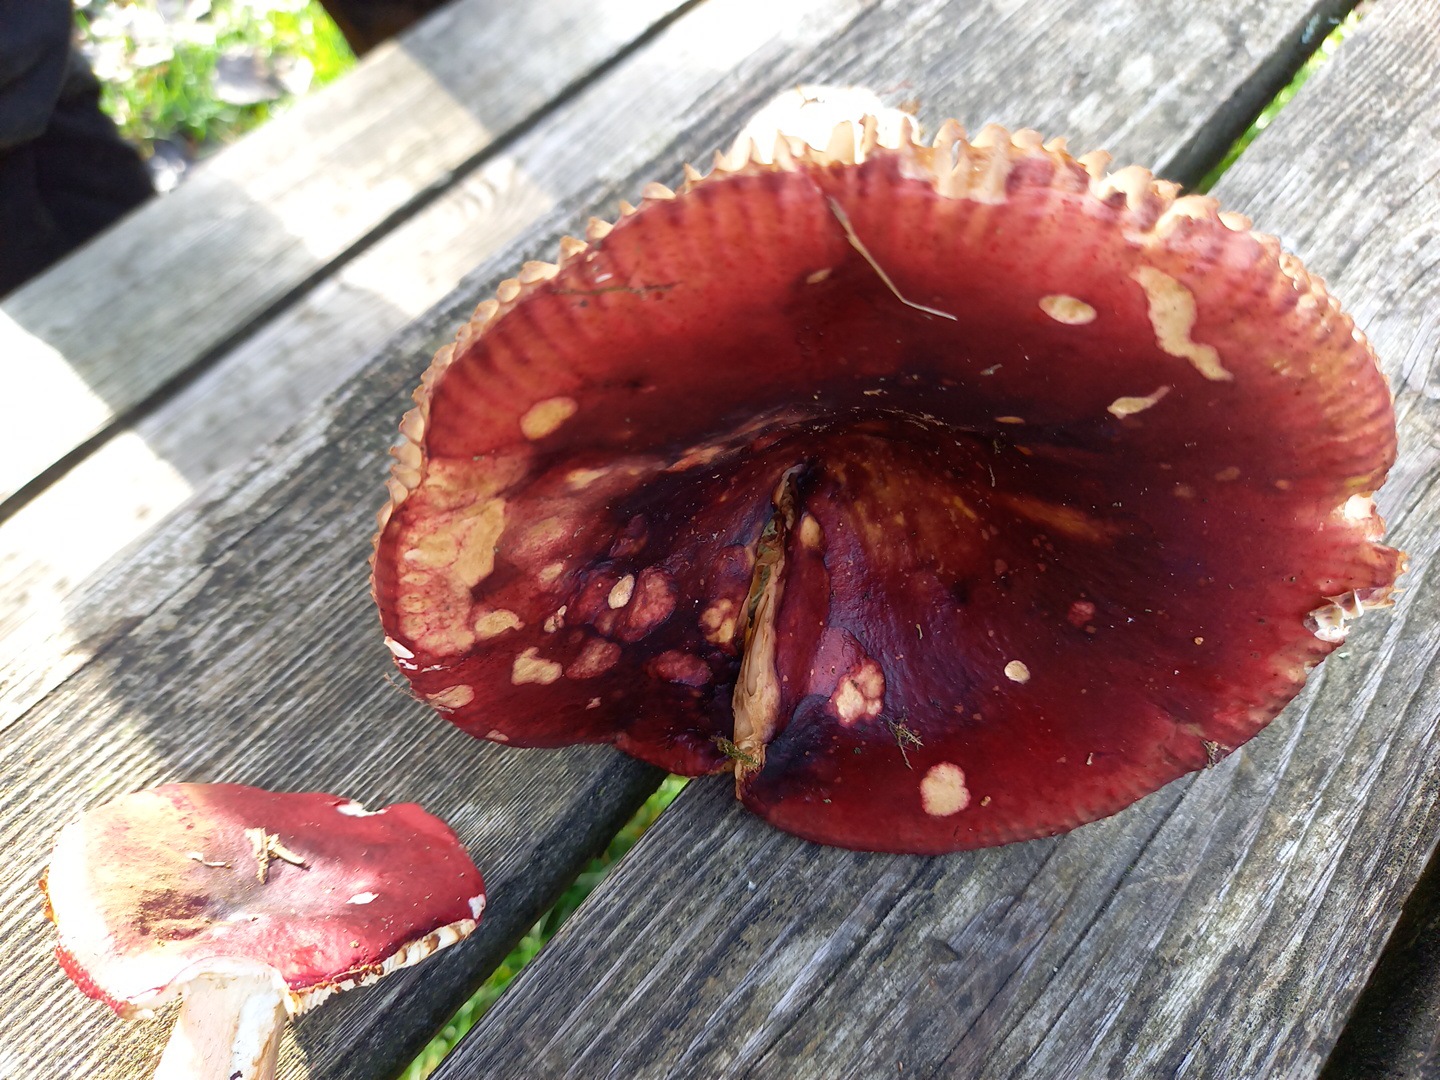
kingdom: Fungi
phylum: Basidiomycota
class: Agaricomycetes
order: Russulales
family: Russulaceae
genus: Russula
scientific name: Russula
